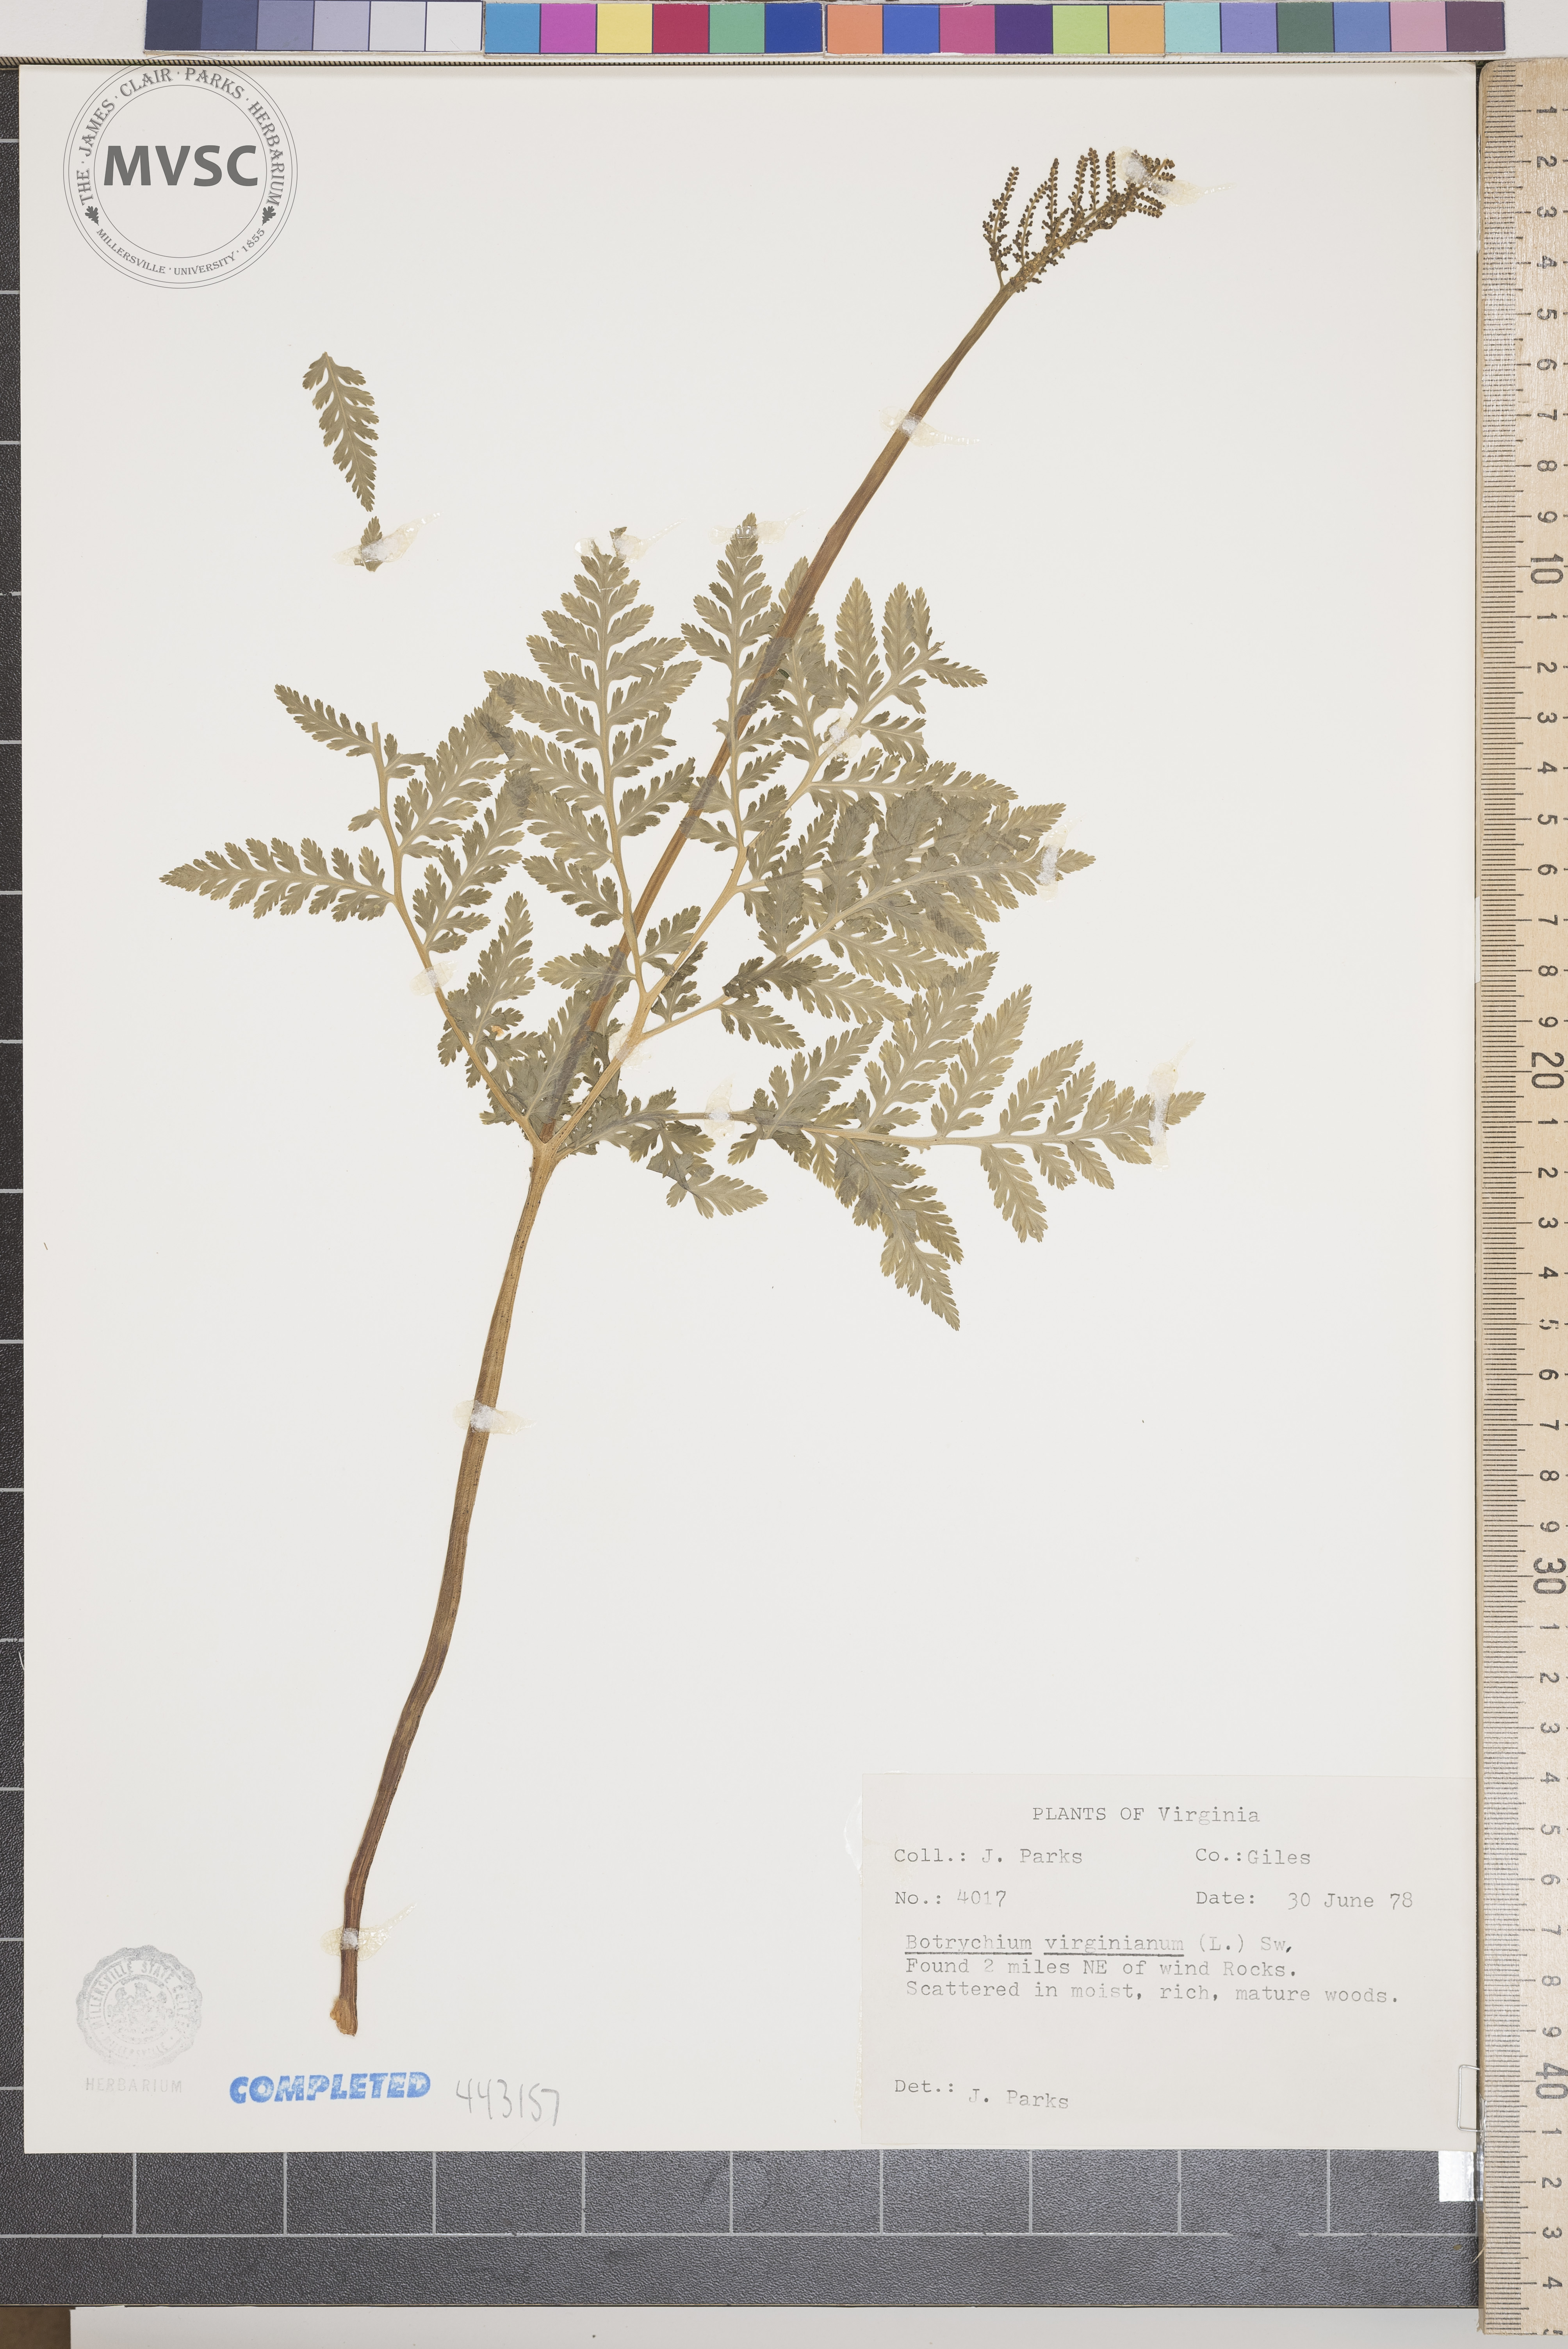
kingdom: Plantae
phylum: Tracheophyta
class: Polypodiopsida
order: Ophioglossales
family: Ophioglossaceae
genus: Sceptridium
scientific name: Sceptridium dissectum
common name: Cut-leaved grapefern
